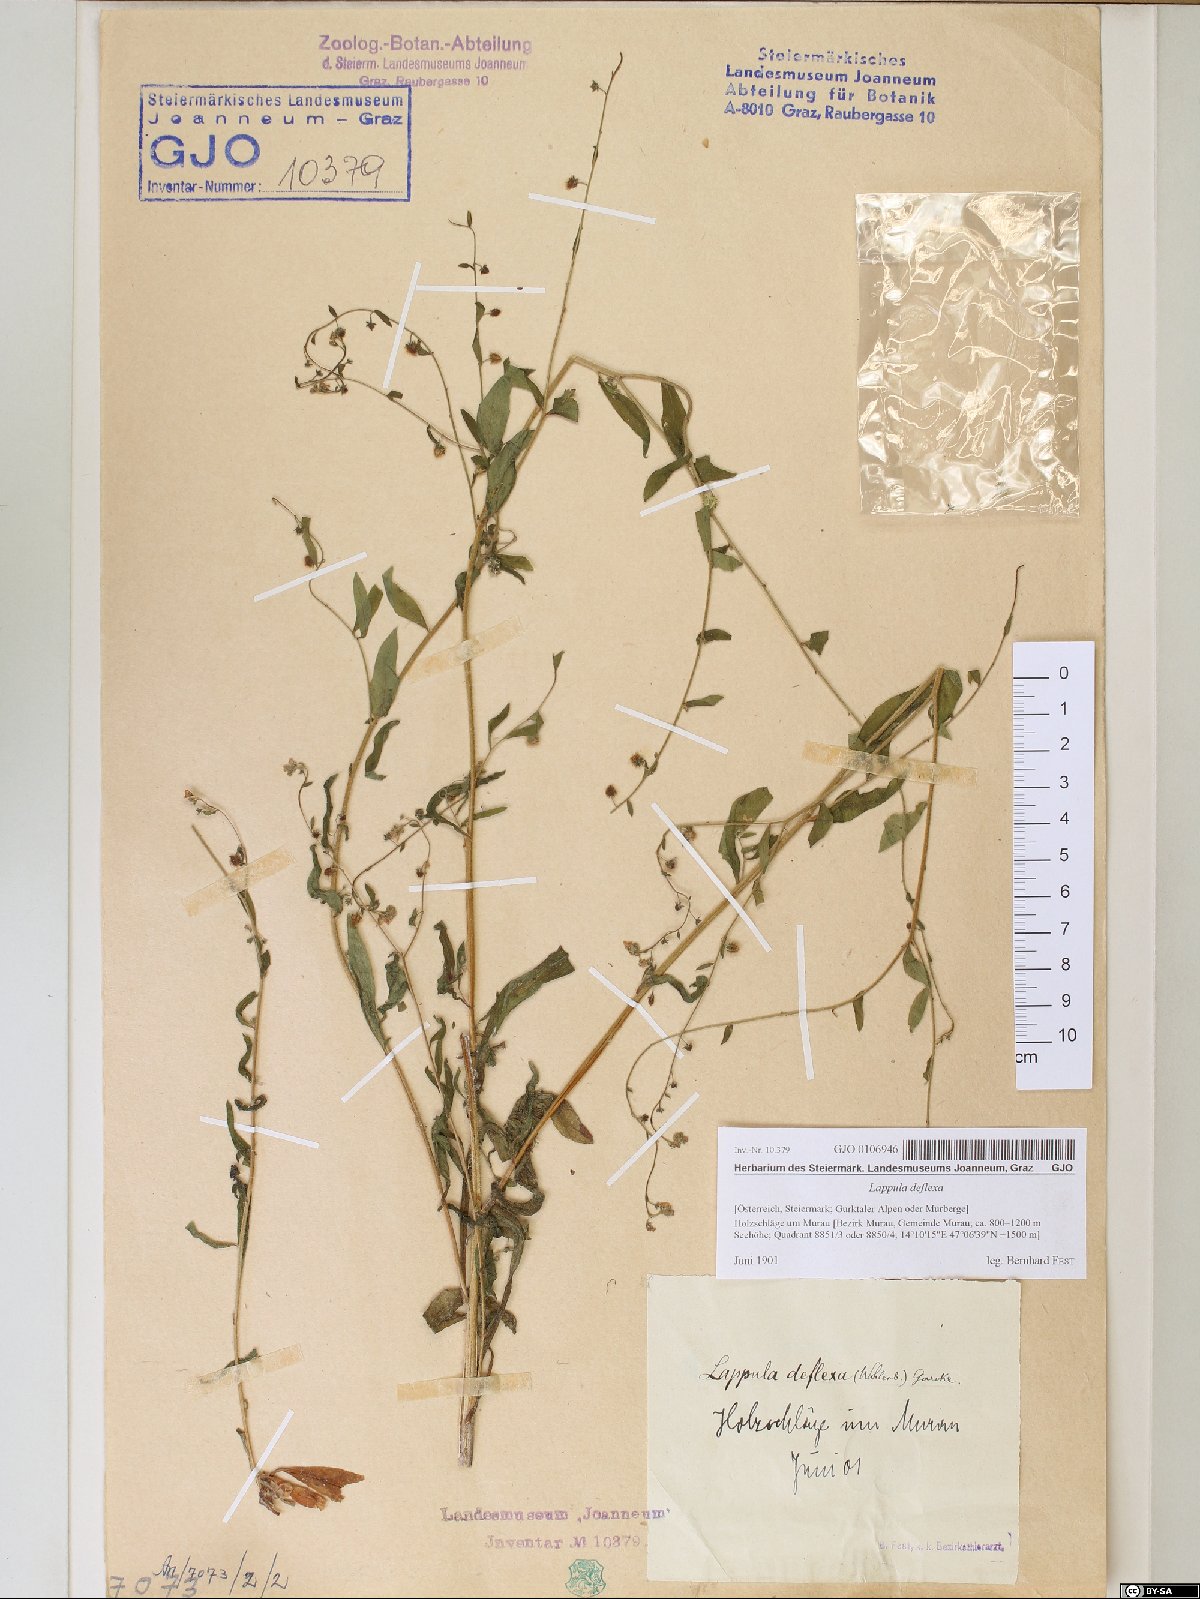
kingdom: Plantae
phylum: Tracheophyta
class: Magnoliopsida
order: Boraginales
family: Boraginaceae
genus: Hackelia
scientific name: Hackelia deflexa
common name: Nodding stickseed
